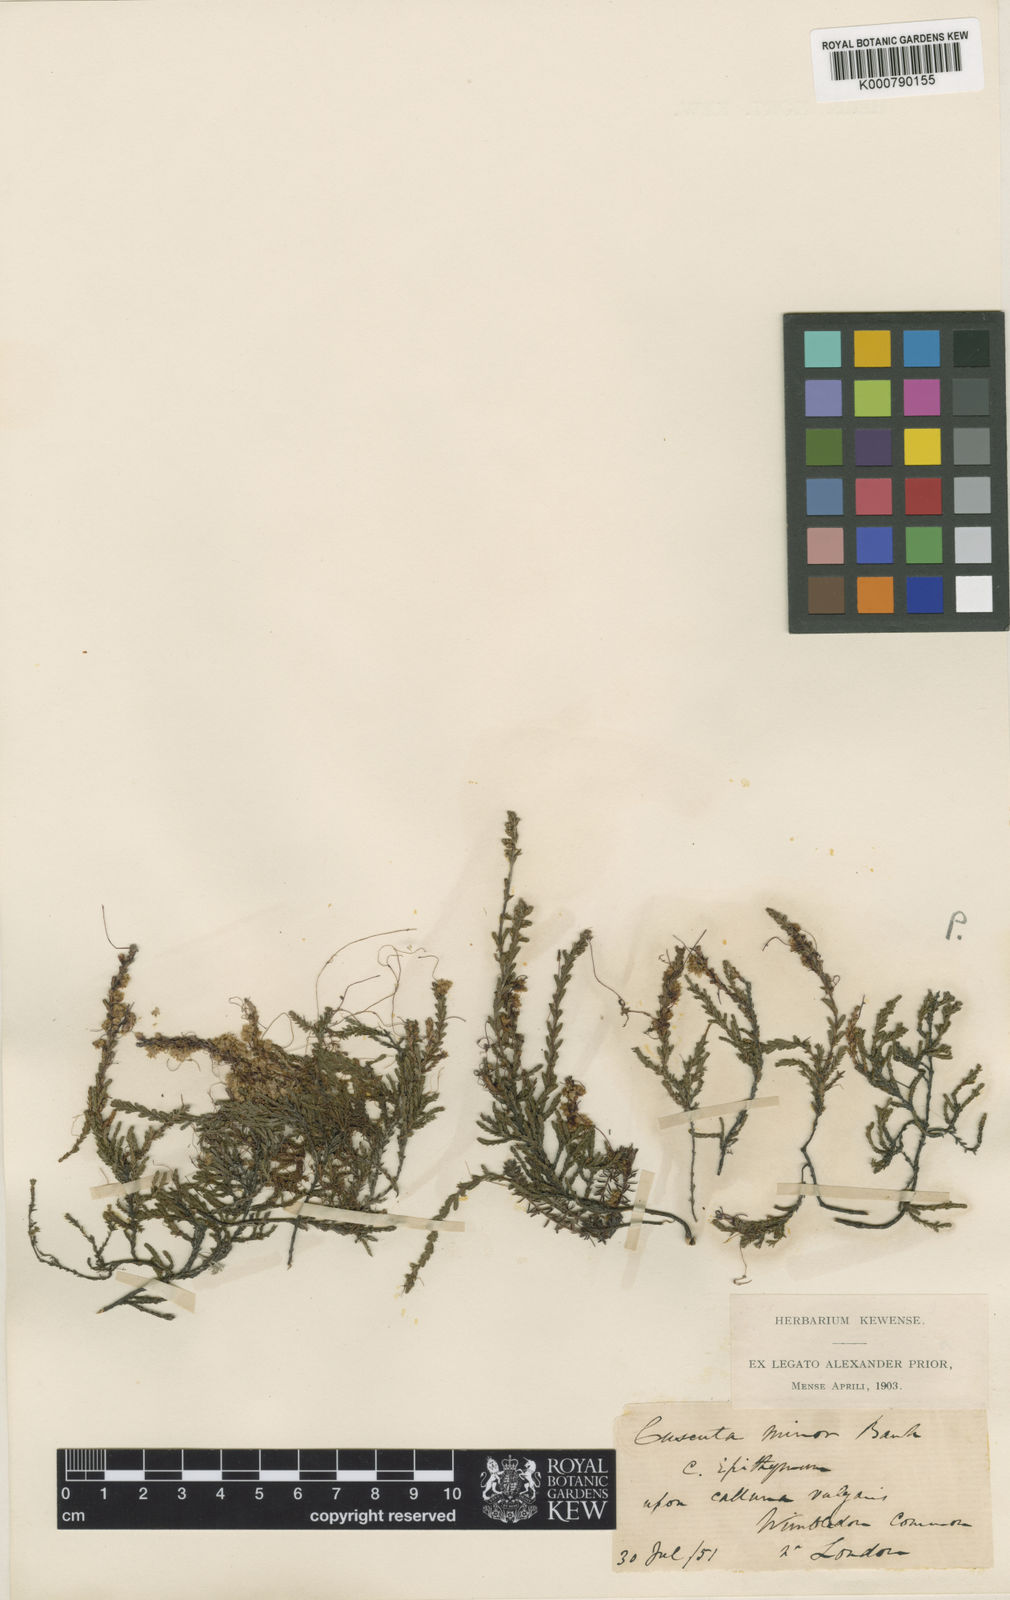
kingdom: Plantae
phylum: Tracheophyta
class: Magnoliopsida
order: Solanales
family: Convolvulaceae
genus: Cuscuta
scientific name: Cuscuta epithymum
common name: Clover dodder
